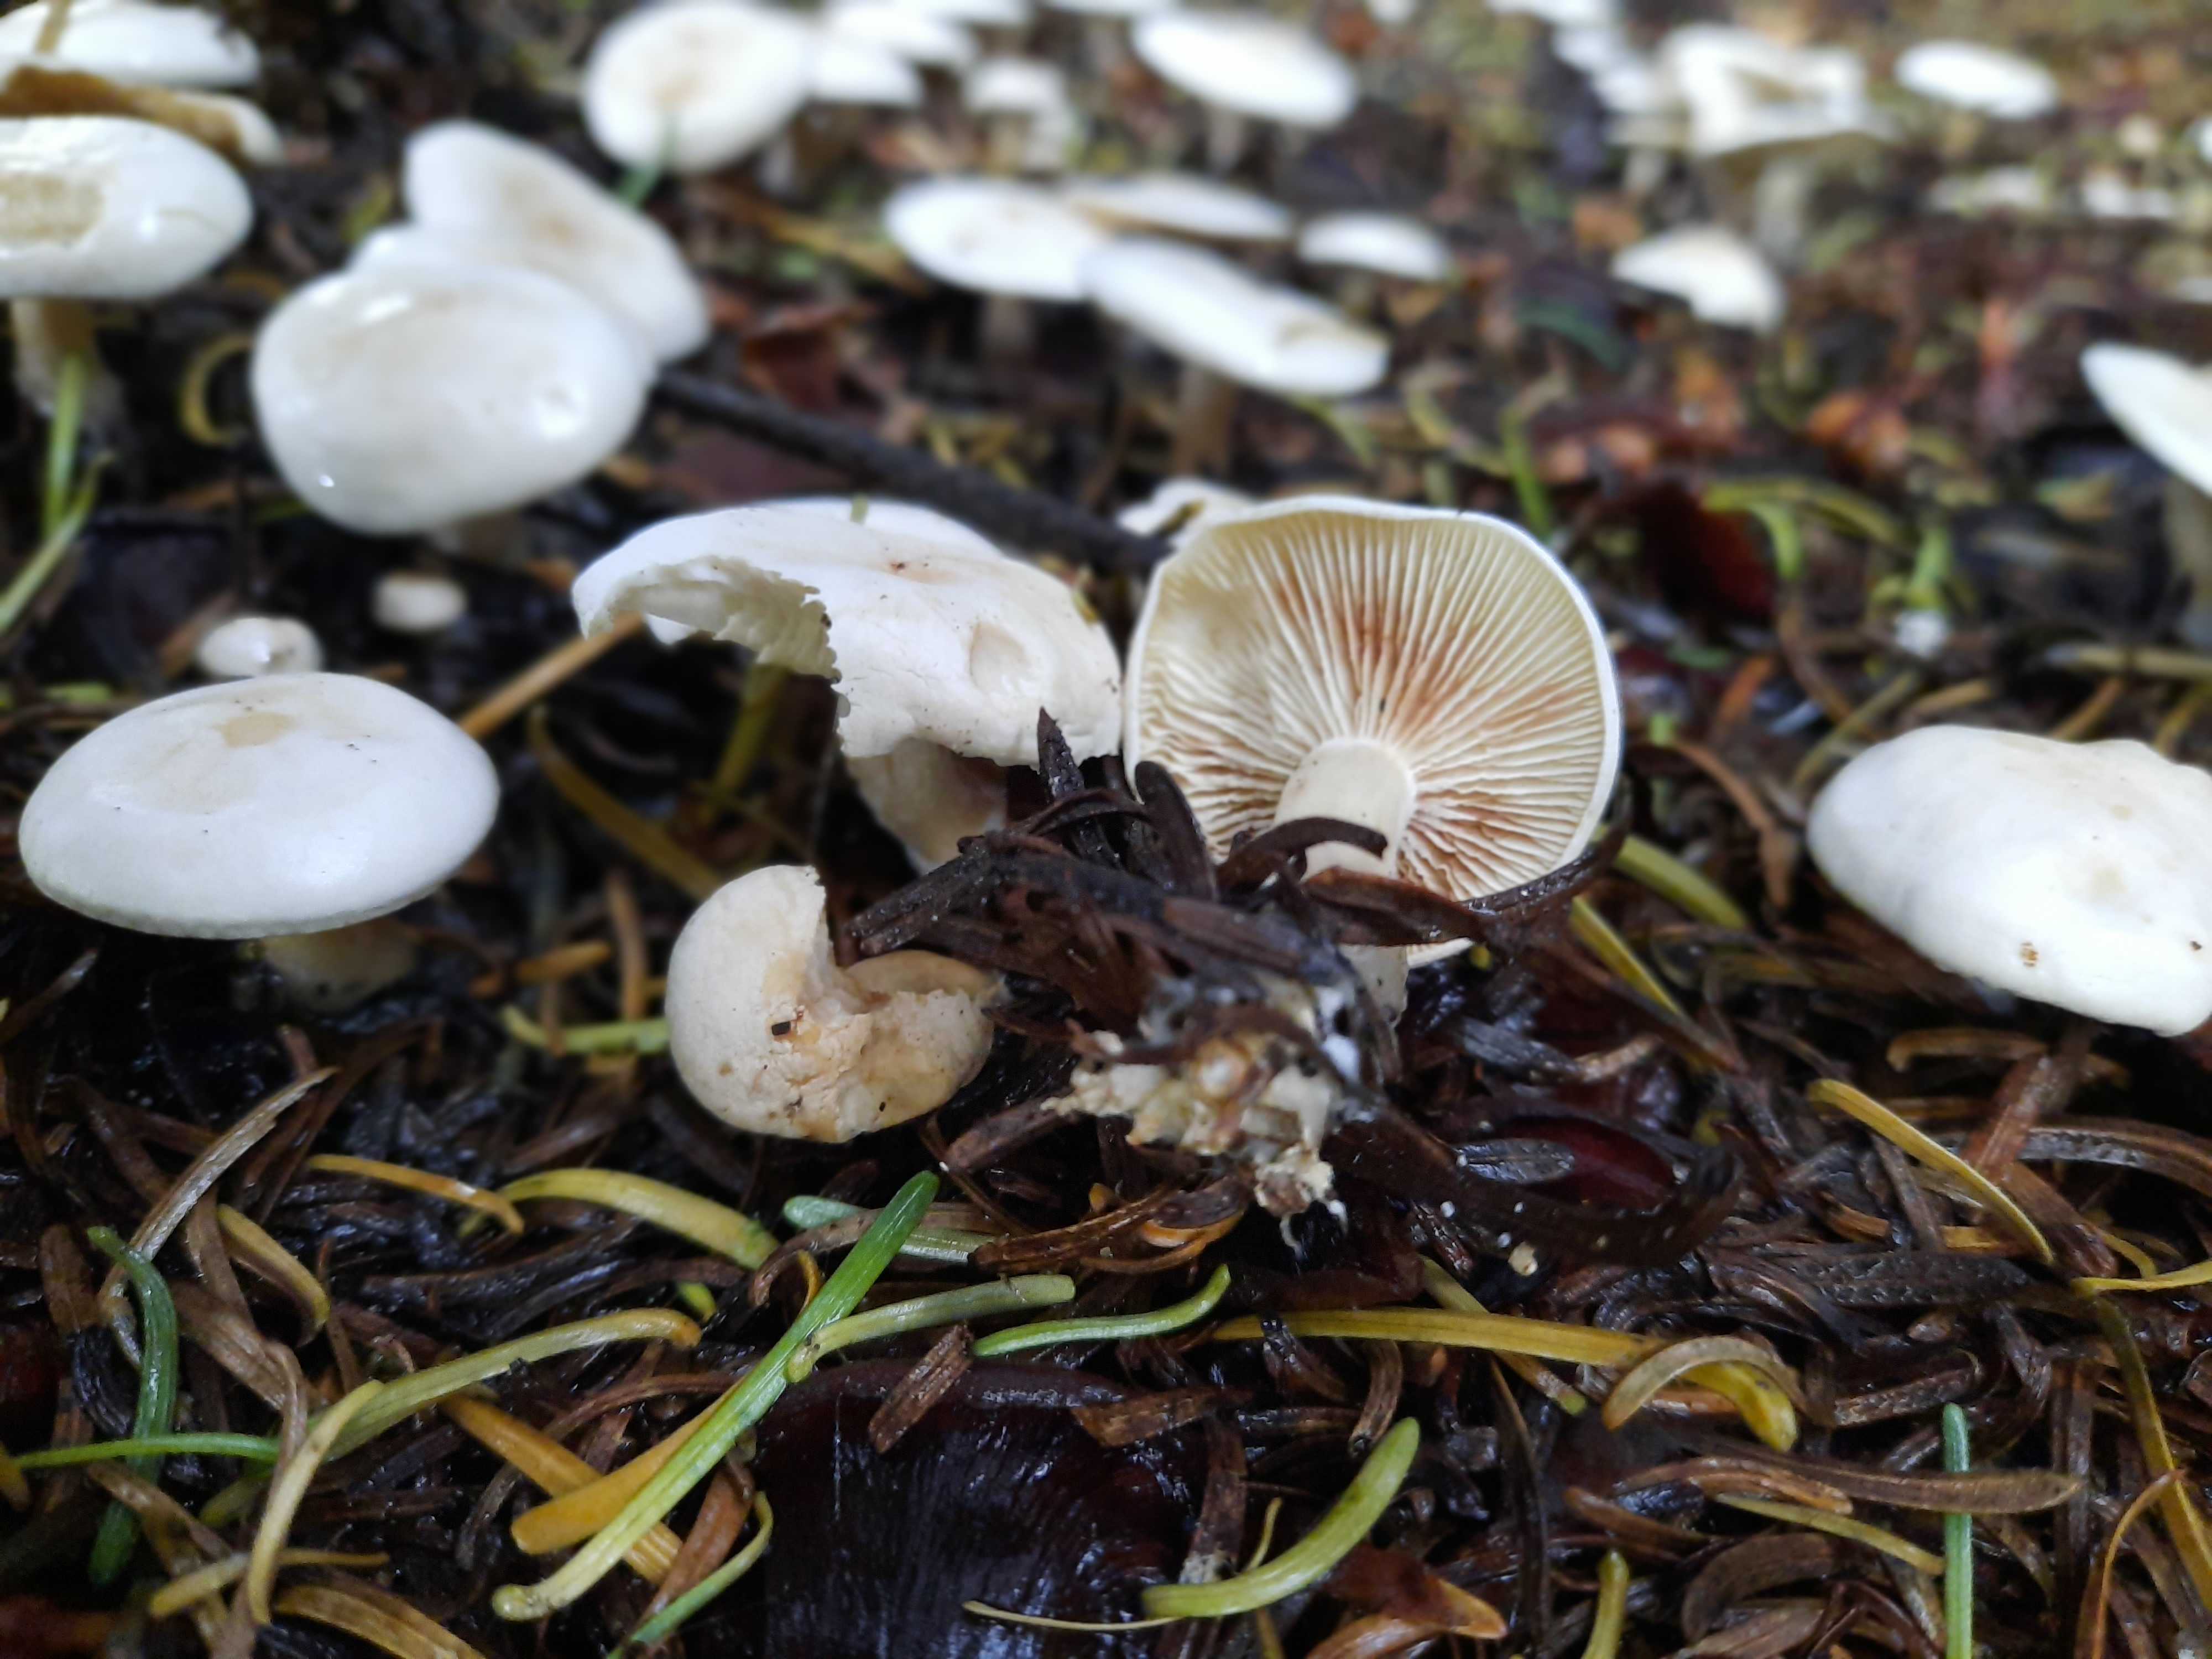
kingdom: Fungi
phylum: Basidiomycota
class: Agaricomycetes
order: Agaricales
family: Tricholomataceae
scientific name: Tricholomataceae
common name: ridderhatfamilien
